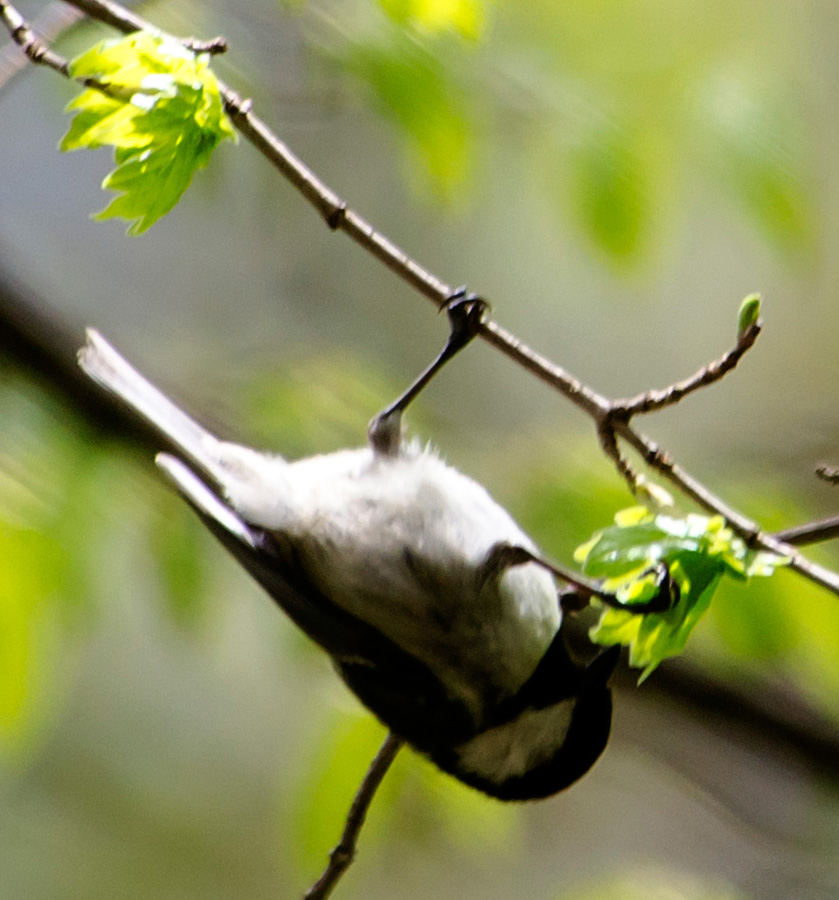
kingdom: Animalia
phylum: Chordata
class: Aves
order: Passeriformes
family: Paridae
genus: Periparus
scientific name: Periparus ater
